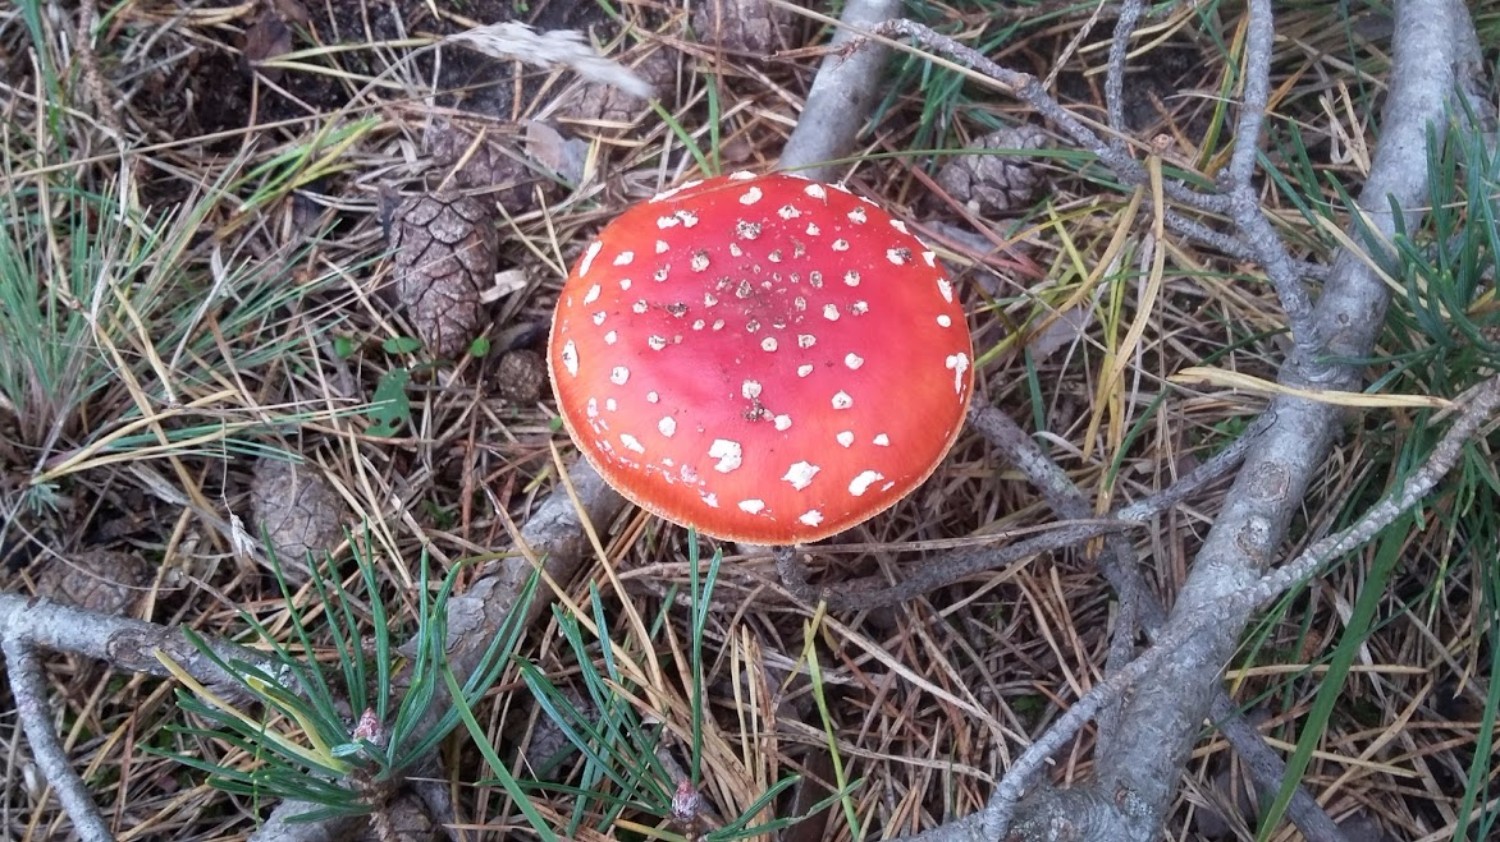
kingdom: Fungi
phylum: Basidiomycota
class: Agaricomycetes
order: Agaricales
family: Amanitaceae
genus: Amanita
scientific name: Amanita muscaria
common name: rød fluesvamp
